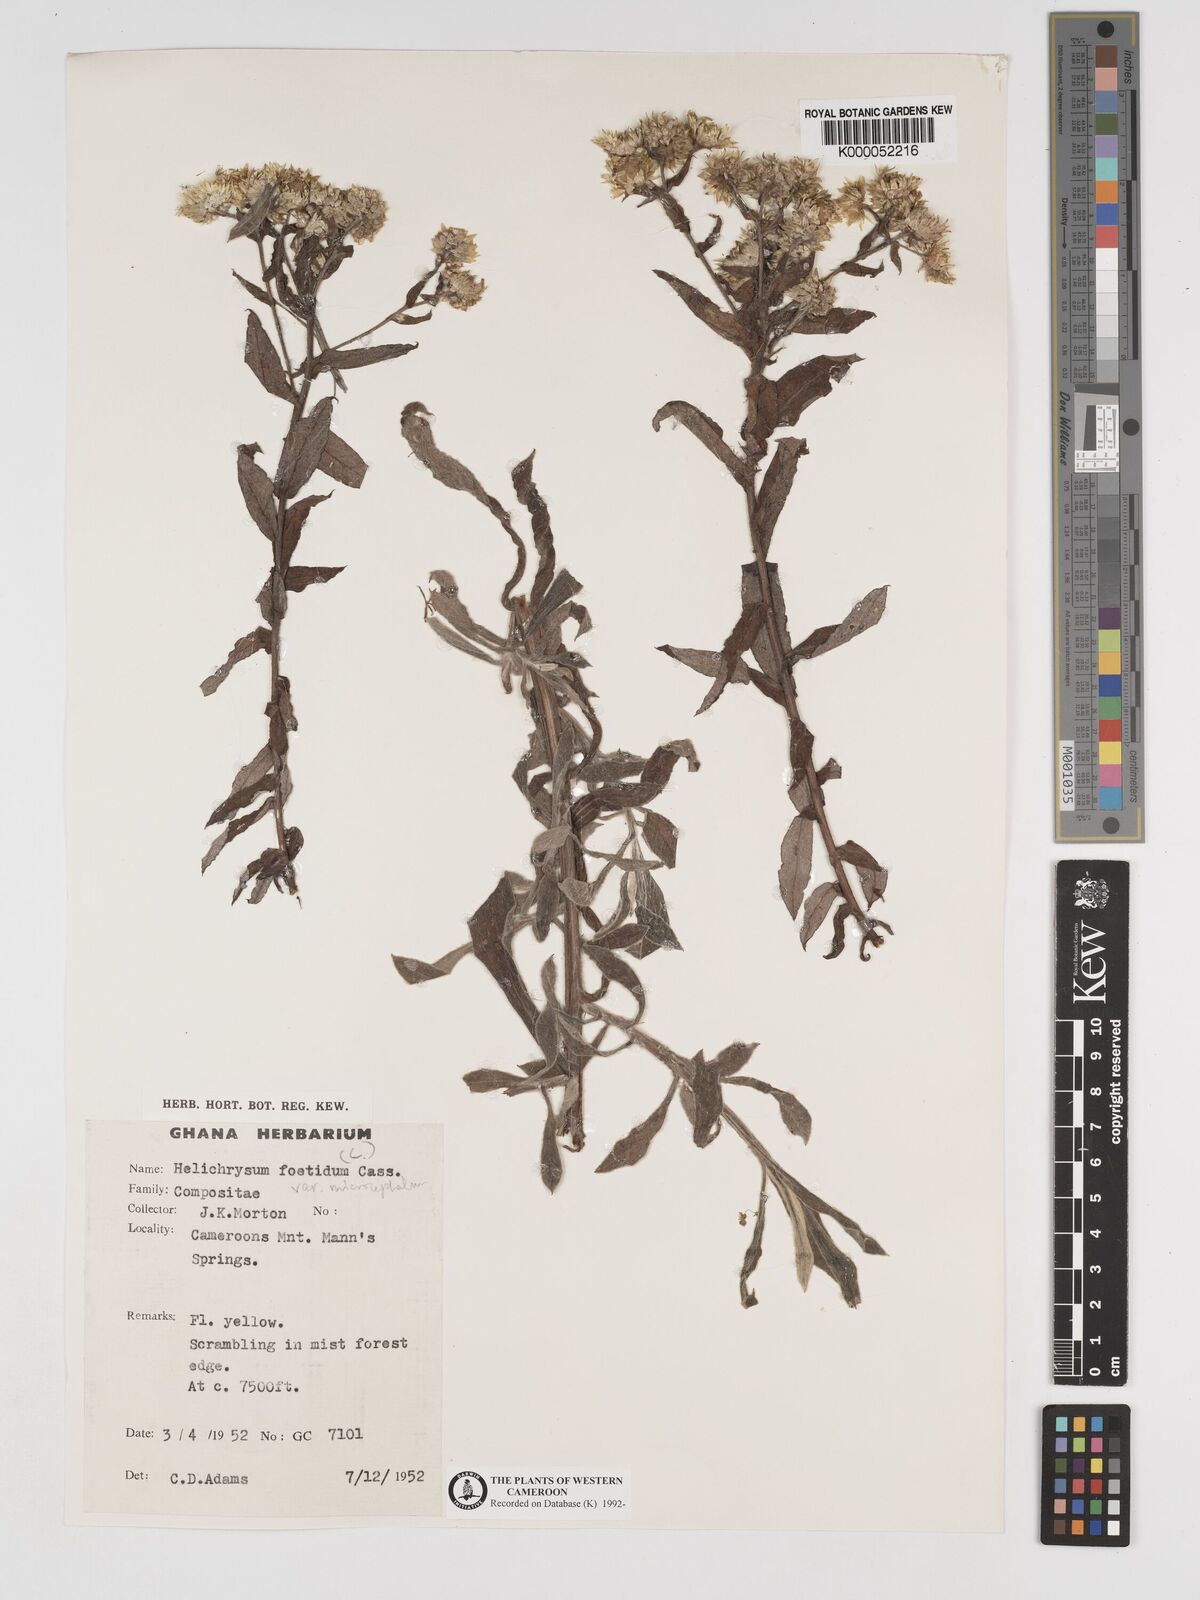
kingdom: Plantae
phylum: Tracheophyta
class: Magnoliopsida
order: Asterales
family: Asteraceae
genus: Helichrysum
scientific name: Helichrysum foetidum
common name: Stinking everlasting
